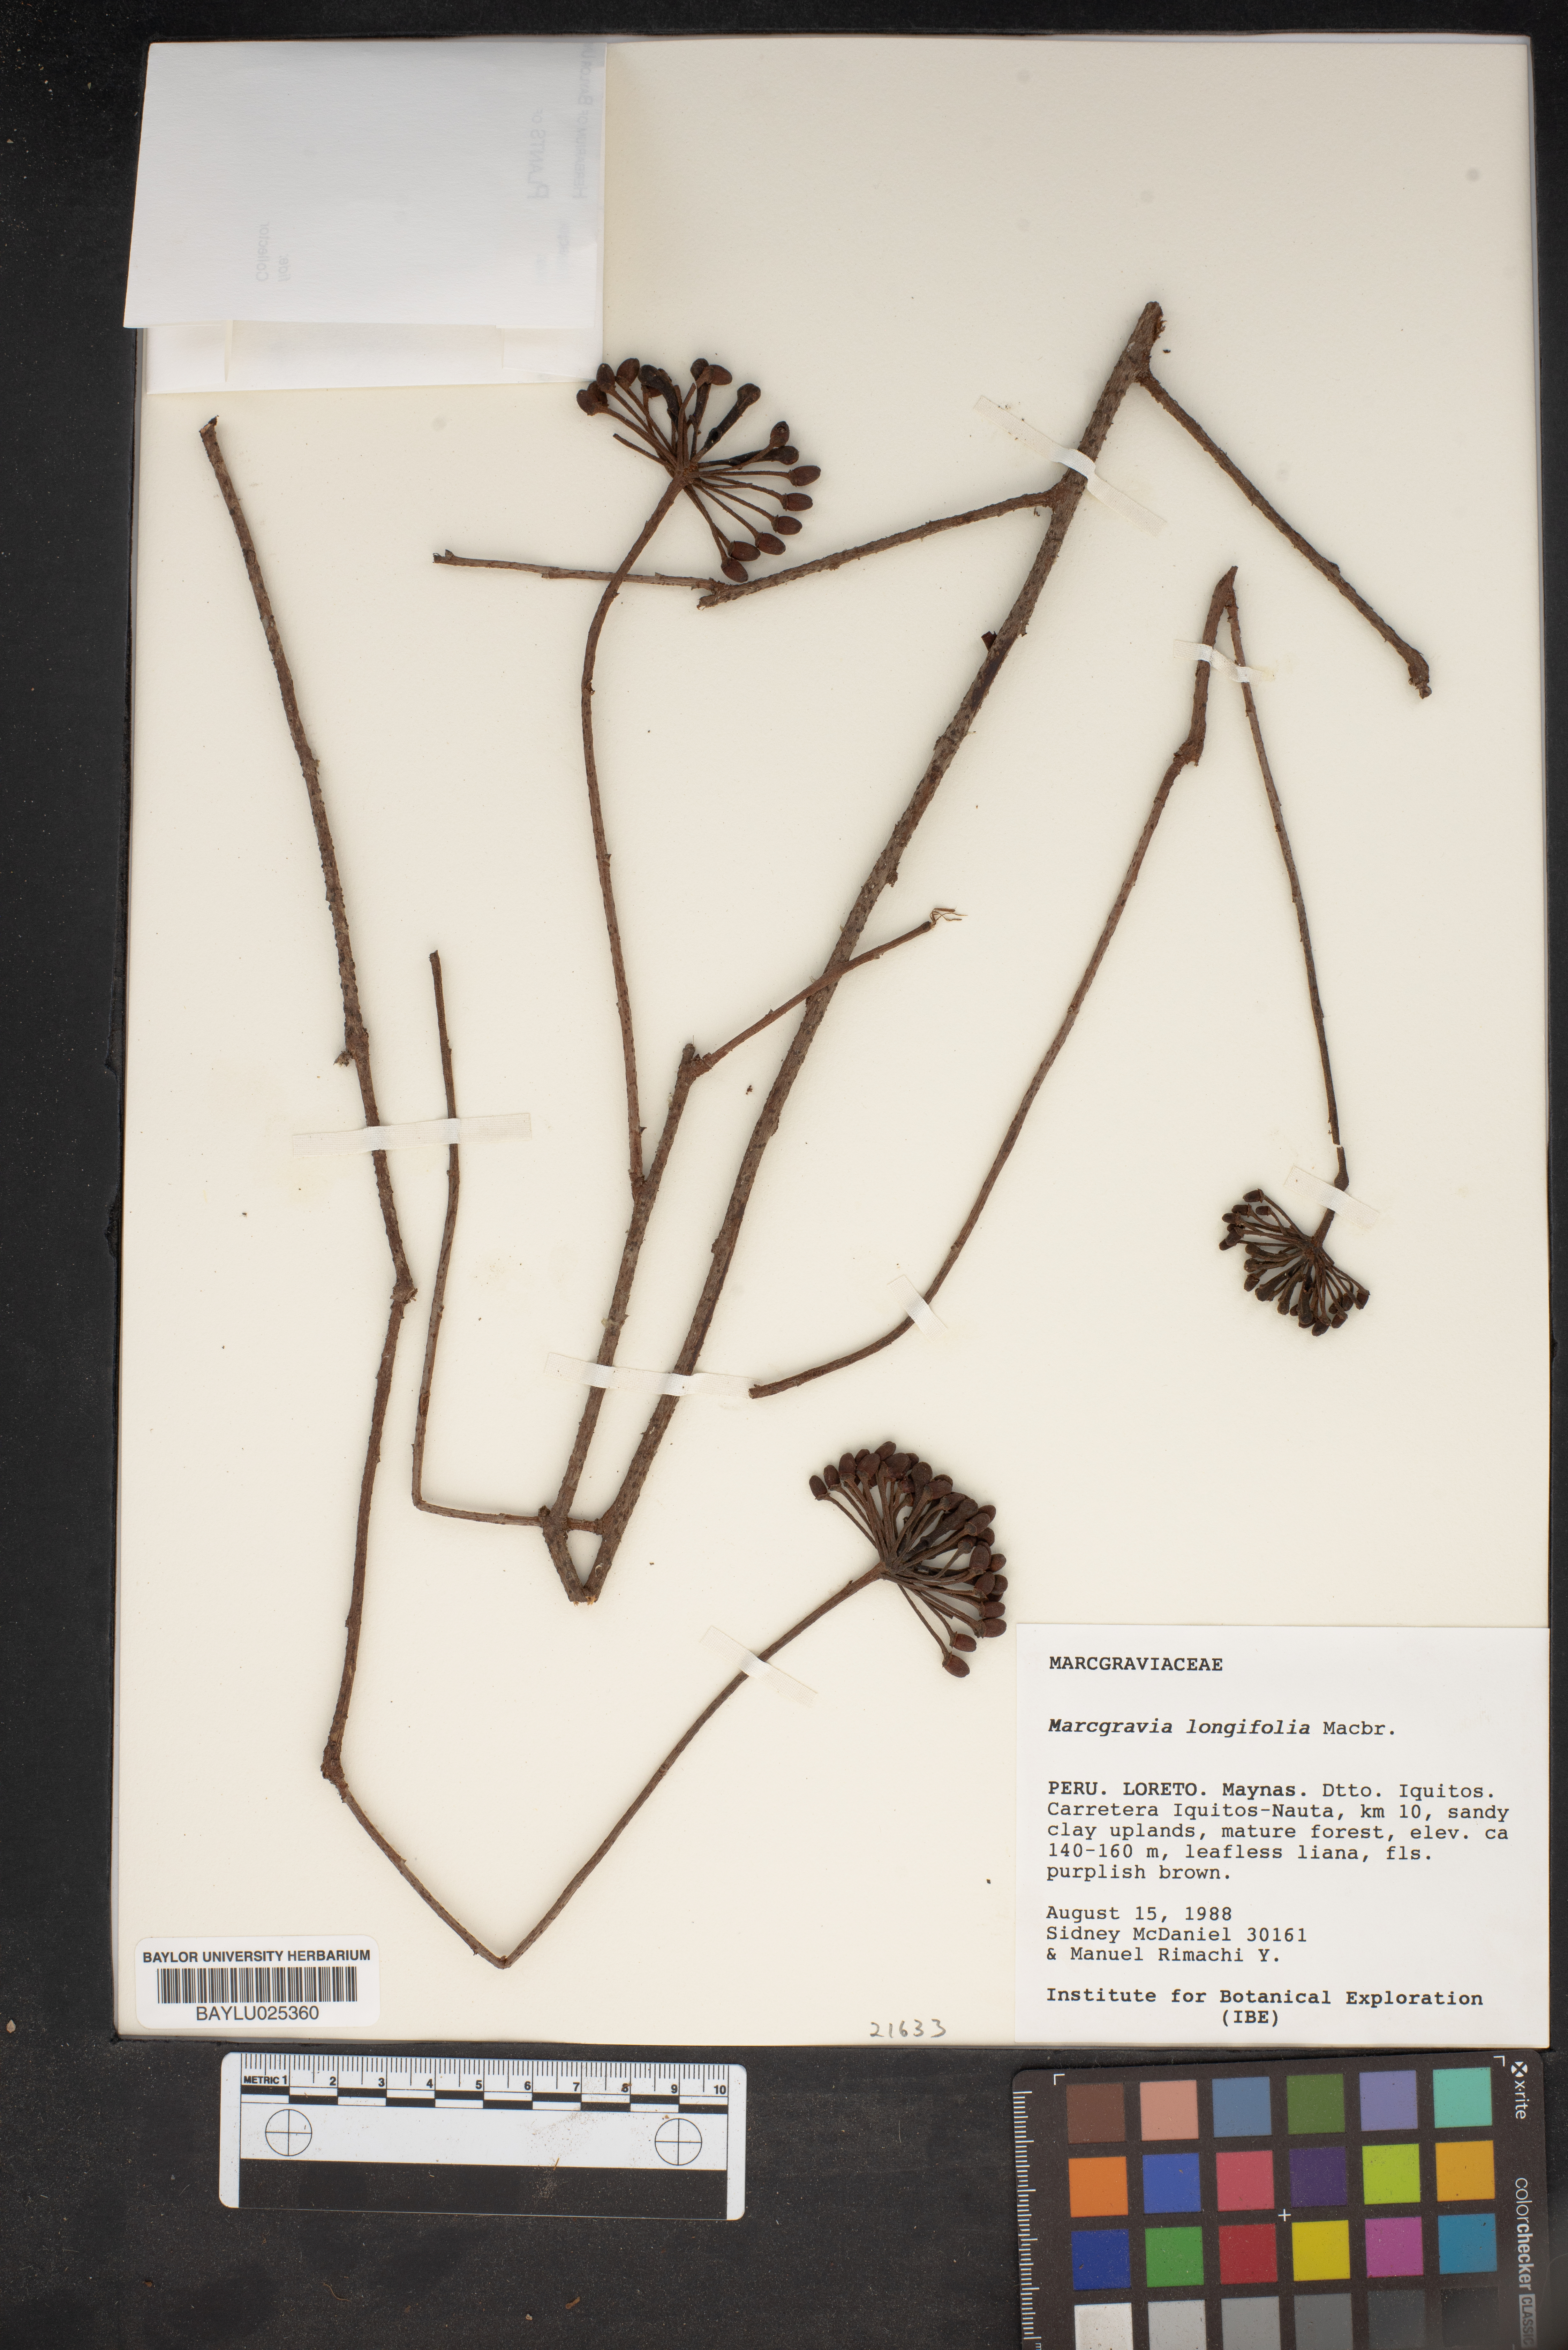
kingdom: Plantae
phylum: Tracheophyta
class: Magnoliopsida
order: Ericales
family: Marcgraviaceae
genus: Marcgravia
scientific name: Marcgravia longifolia
